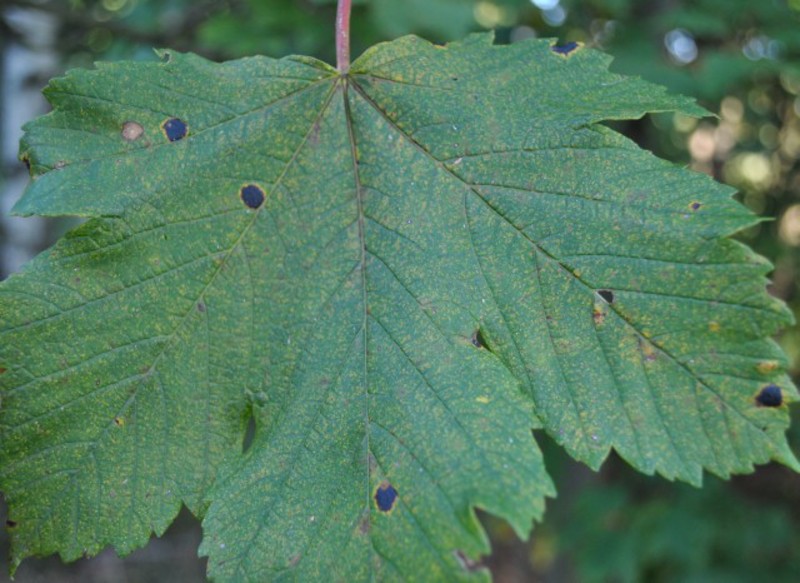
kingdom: Fungi
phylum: Ascomycota
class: Leotiomycetes
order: Rhytismatales
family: Rhytismataceae
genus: Rhytisma
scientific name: Rhytisma acerinum
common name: European tar spot
